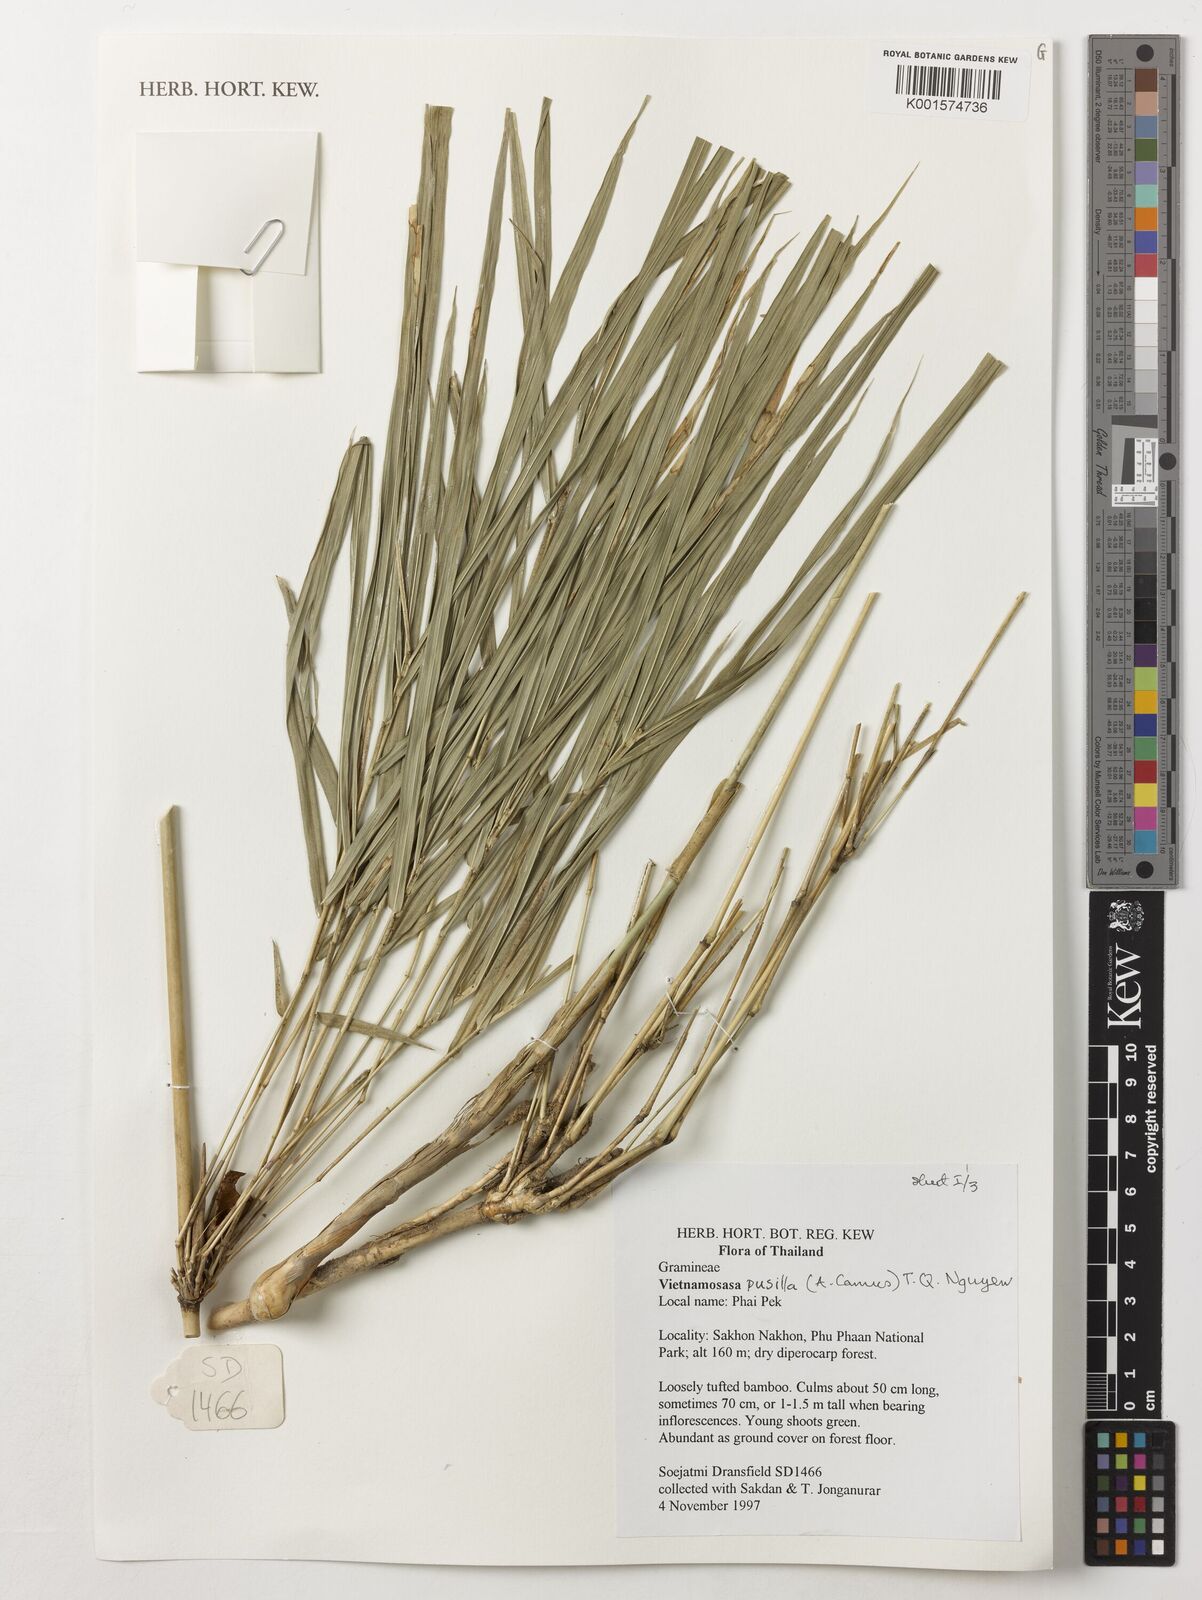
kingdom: Plantae
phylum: Tracheophyta
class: Liliopsida
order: Poales
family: Poaceae
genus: Vietnamosasa
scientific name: Vietnamosasa pusilla
